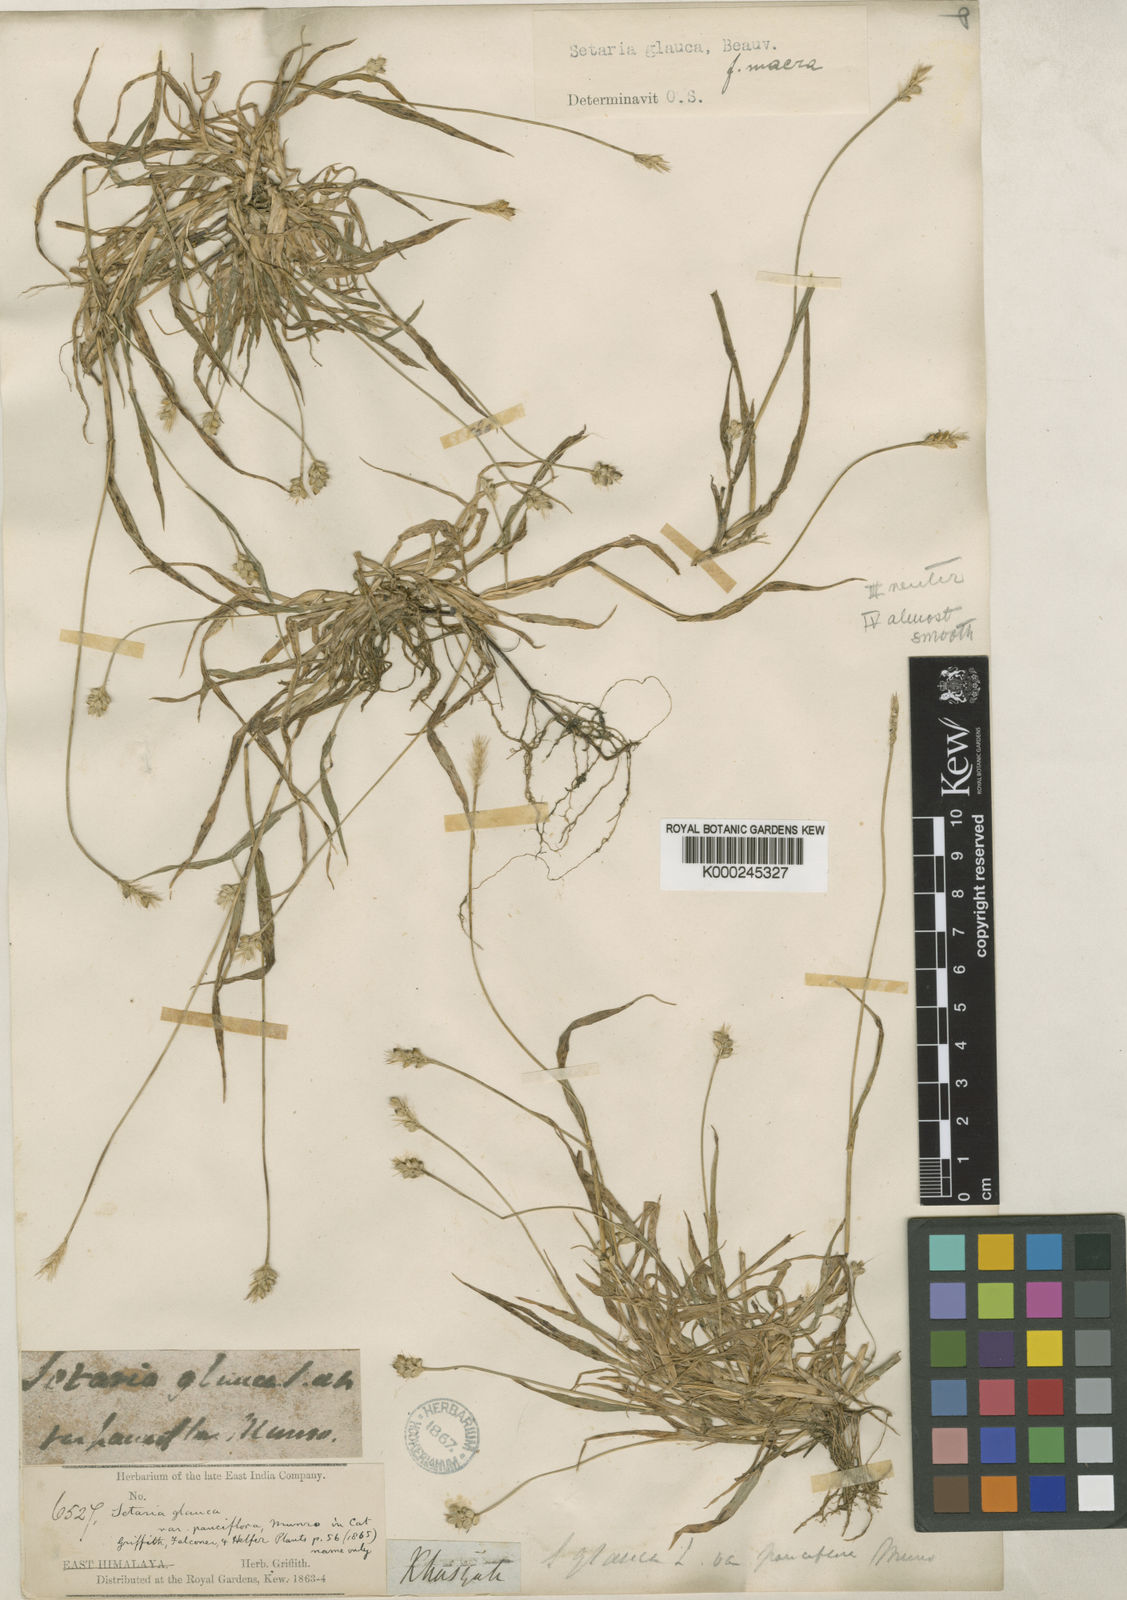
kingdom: Plantae
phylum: Tracheophyta
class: Liliopsida
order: Poales
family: Poaceae
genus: Setaria
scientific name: Setaria pumila
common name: Yellow bristle-grass
